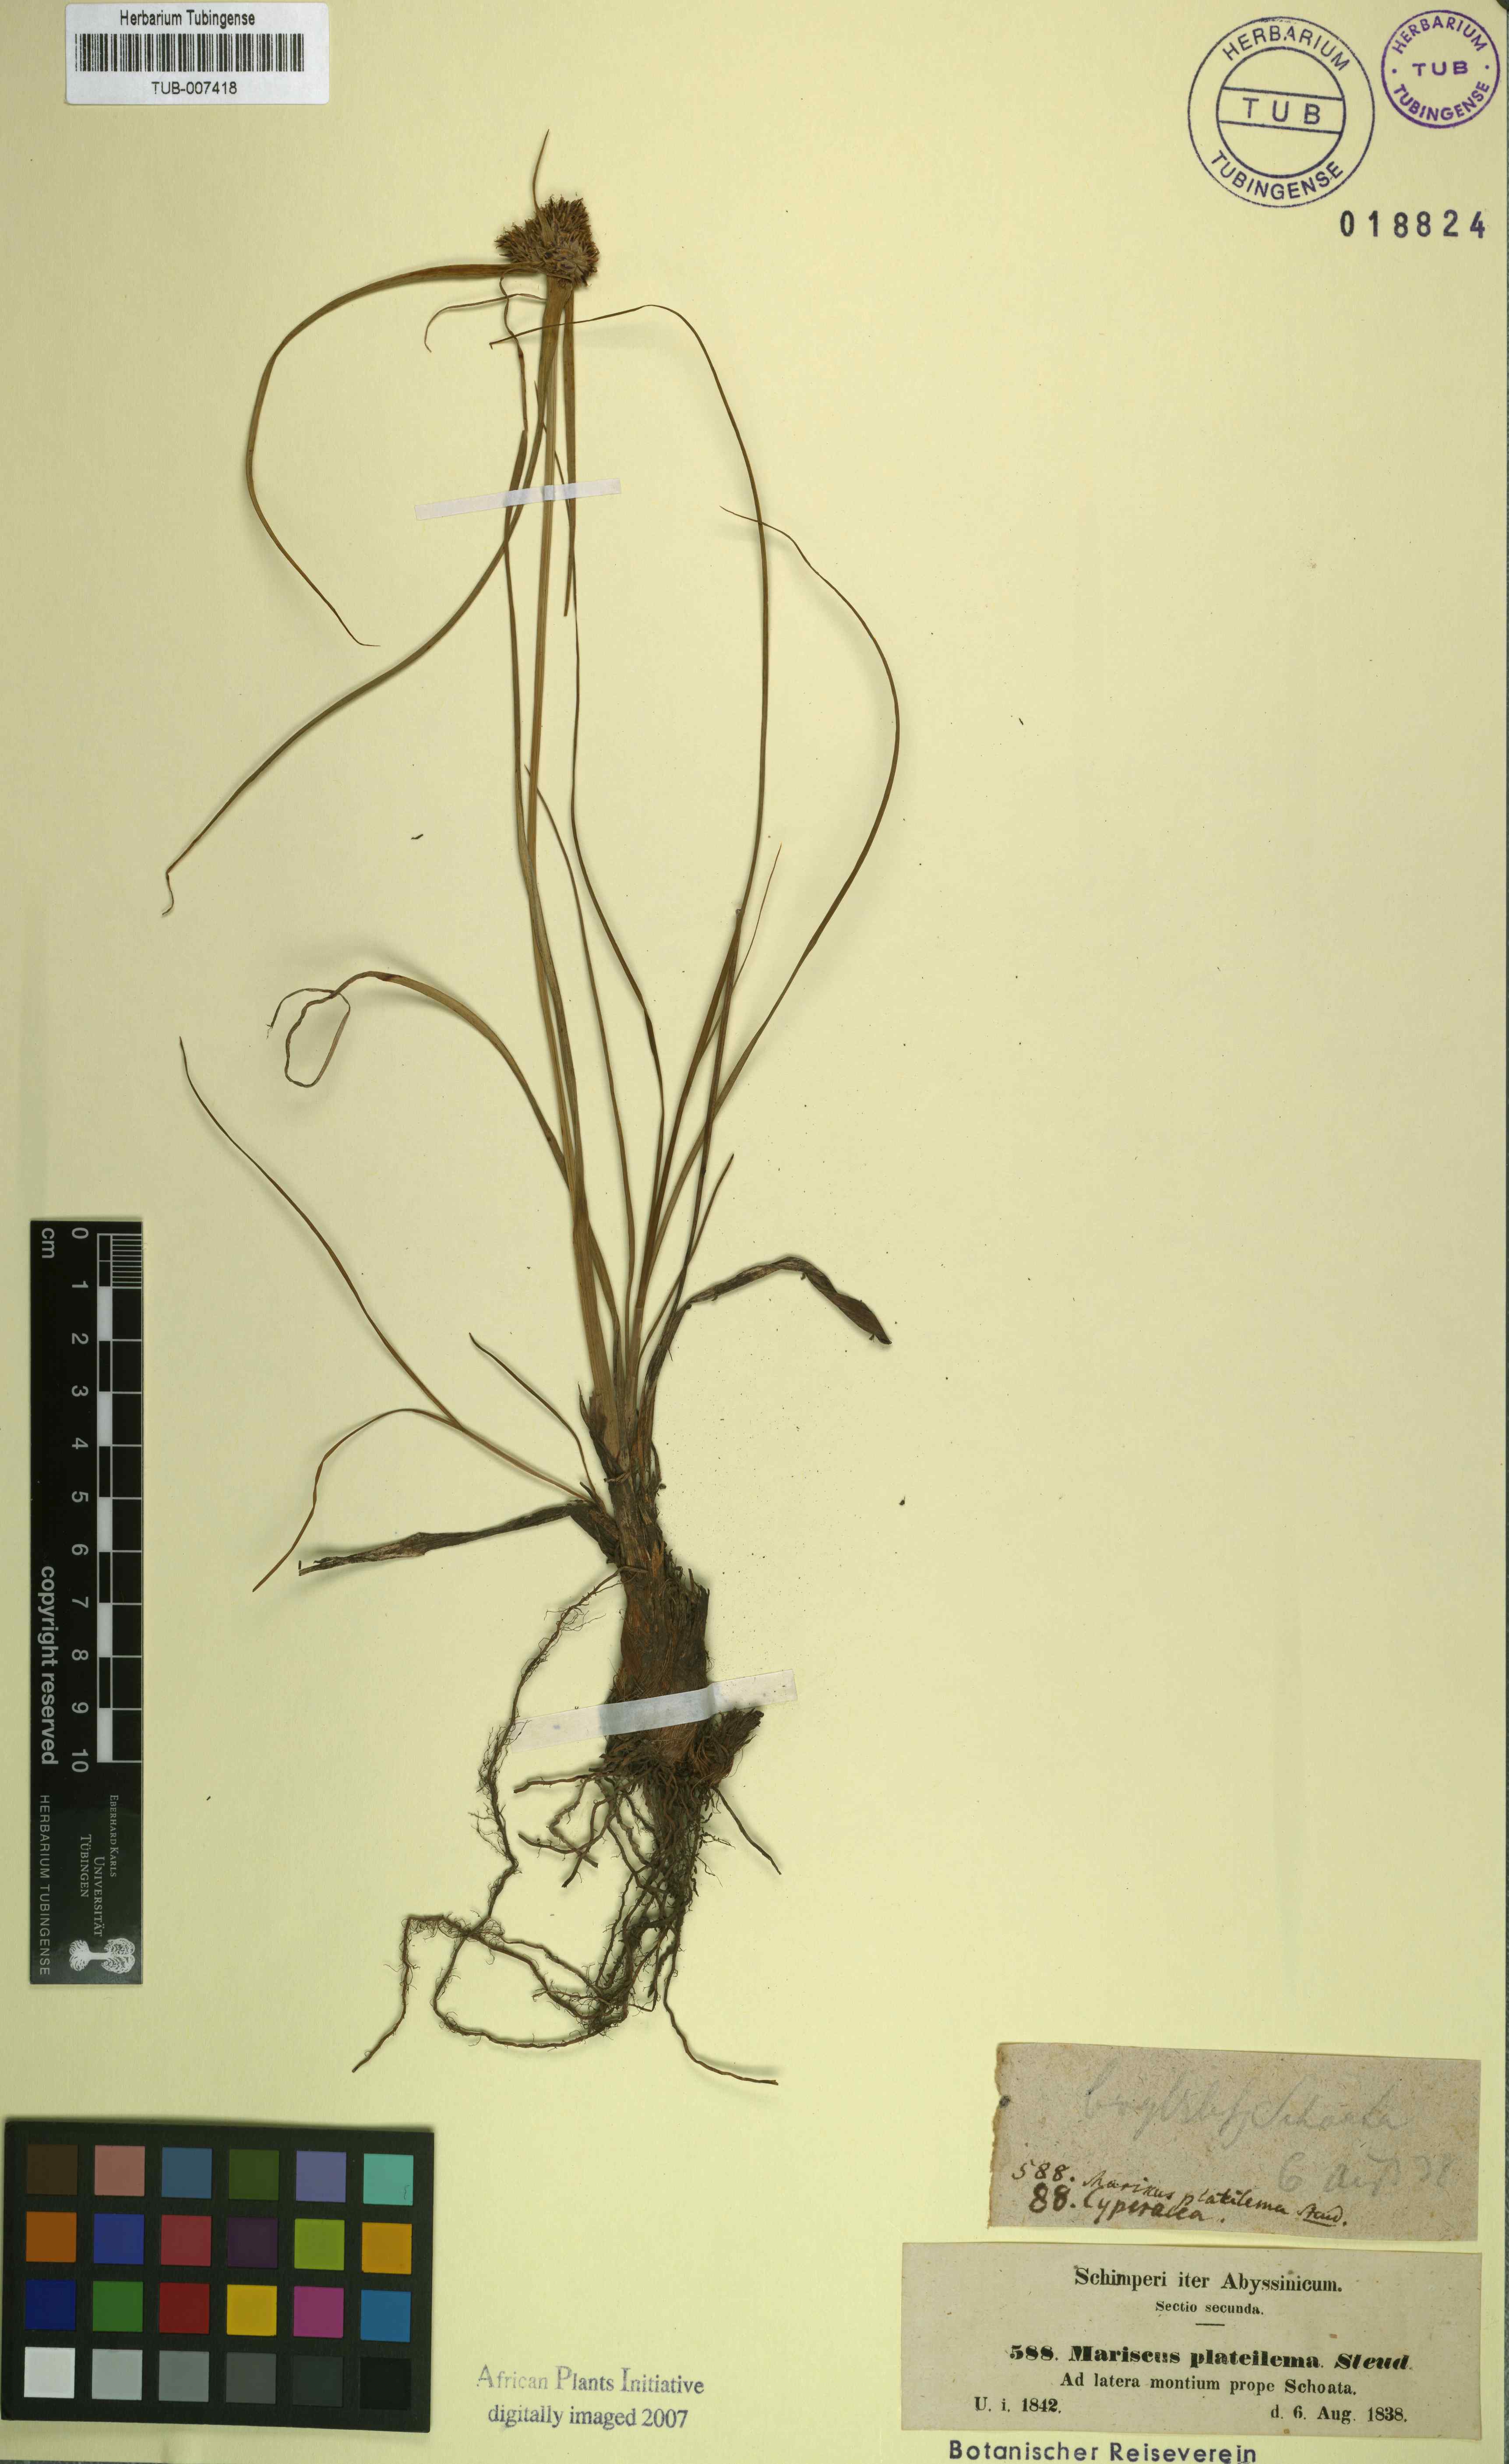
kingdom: Plantae
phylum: Tracheophyta
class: Liliopsida
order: Poales
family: Cyperaceae
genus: Cyperus
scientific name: Cyperus plateilema
